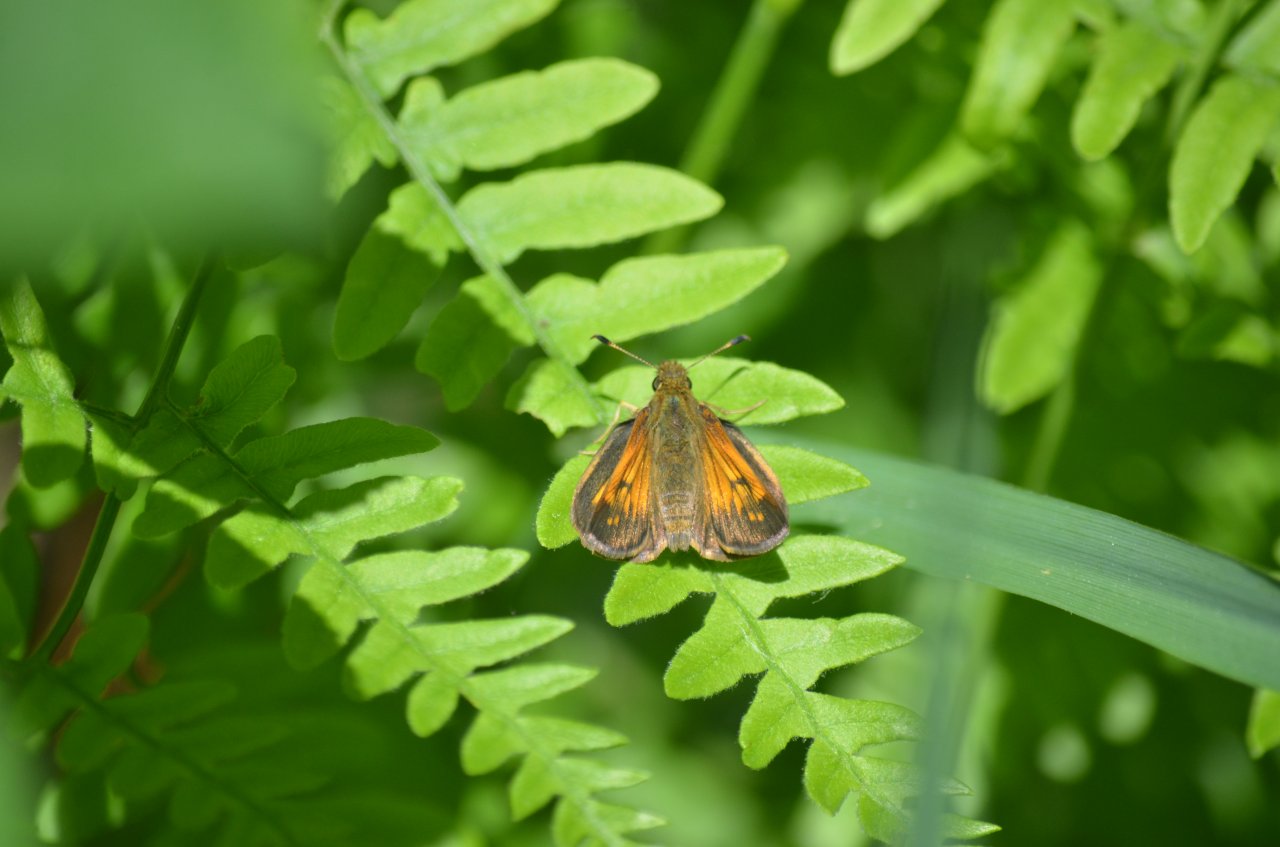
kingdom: Animalia
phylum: Arthropoda
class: Insecta
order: Lepidoptera
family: Hesperiidae
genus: Lon
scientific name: Lon hobomok
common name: Hobomok Skipper
